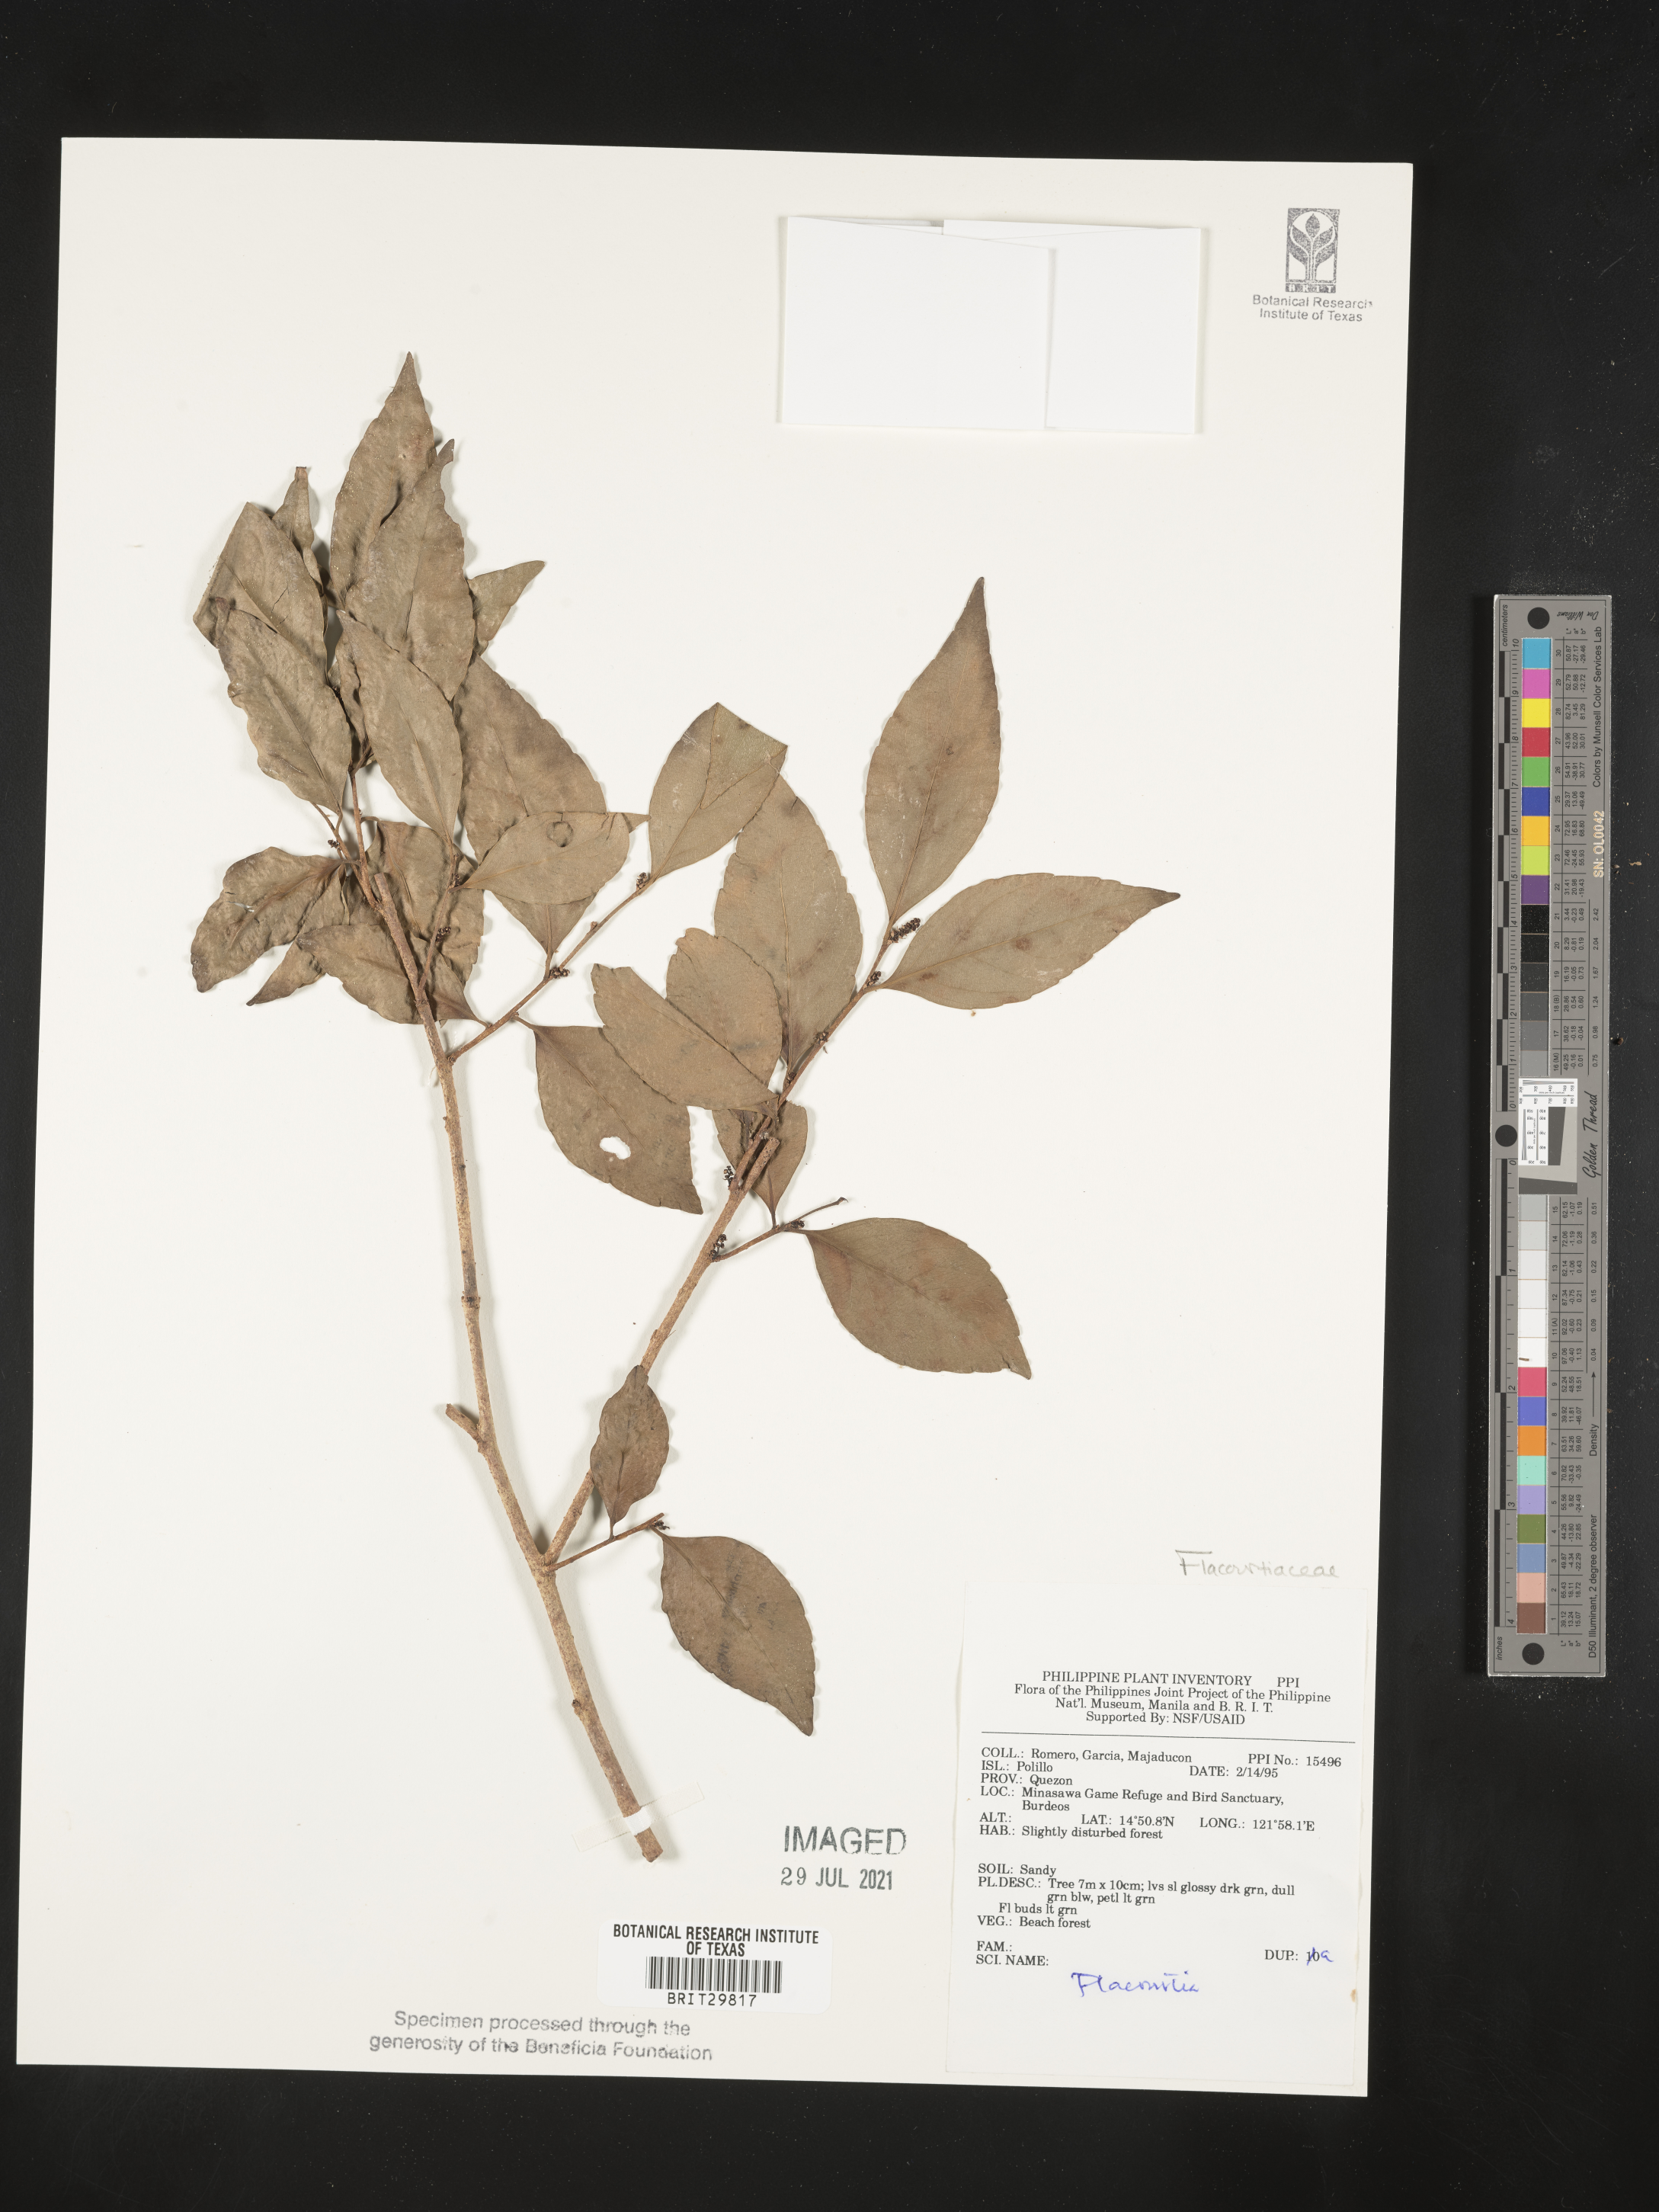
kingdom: Plantae
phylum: Tracheophyta
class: Magnoliopsida
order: Malpighiales
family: Salicaceae
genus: Flacourtia
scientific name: Flacourtia
